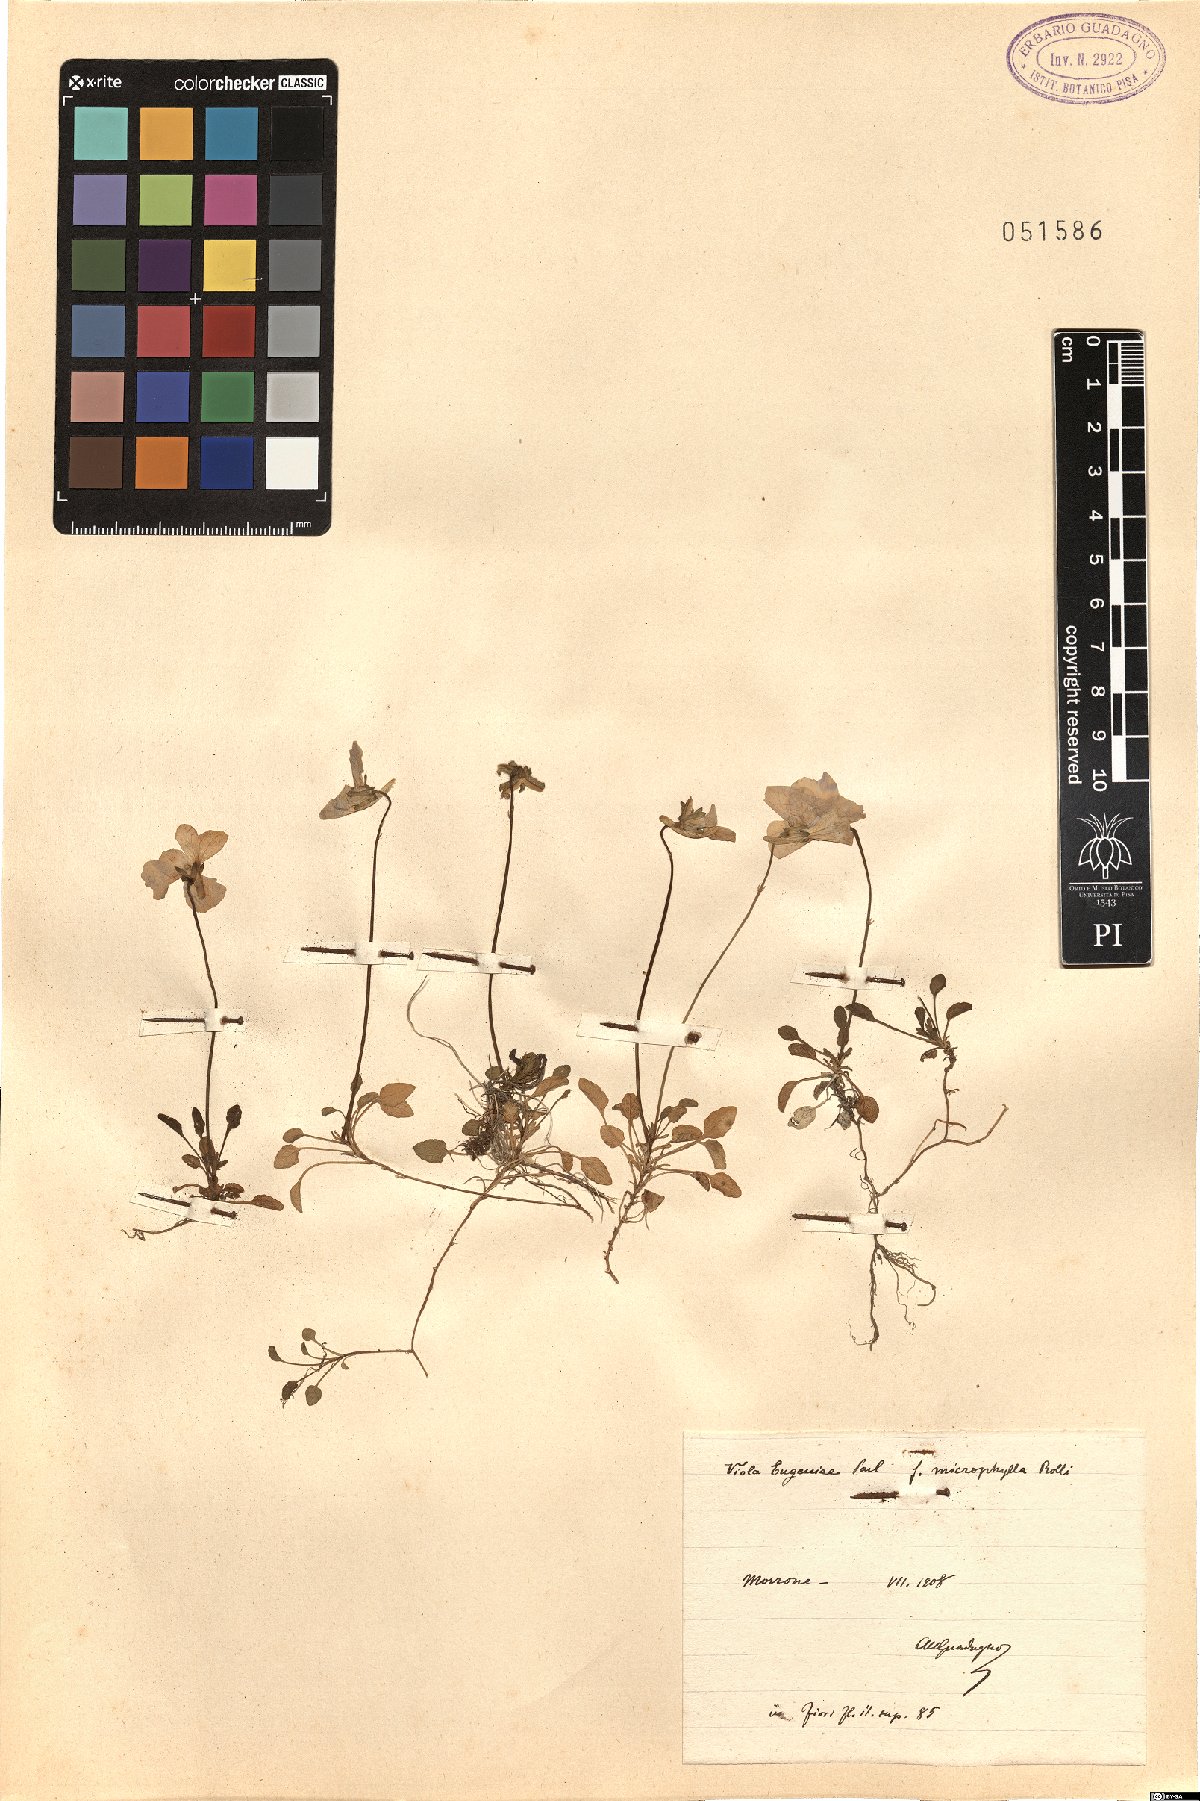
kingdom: Plantae
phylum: Tracheophyta
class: Magnoliopsida
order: Malpighiales
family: Violaceae
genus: Viola
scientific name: Viola eugeniae
